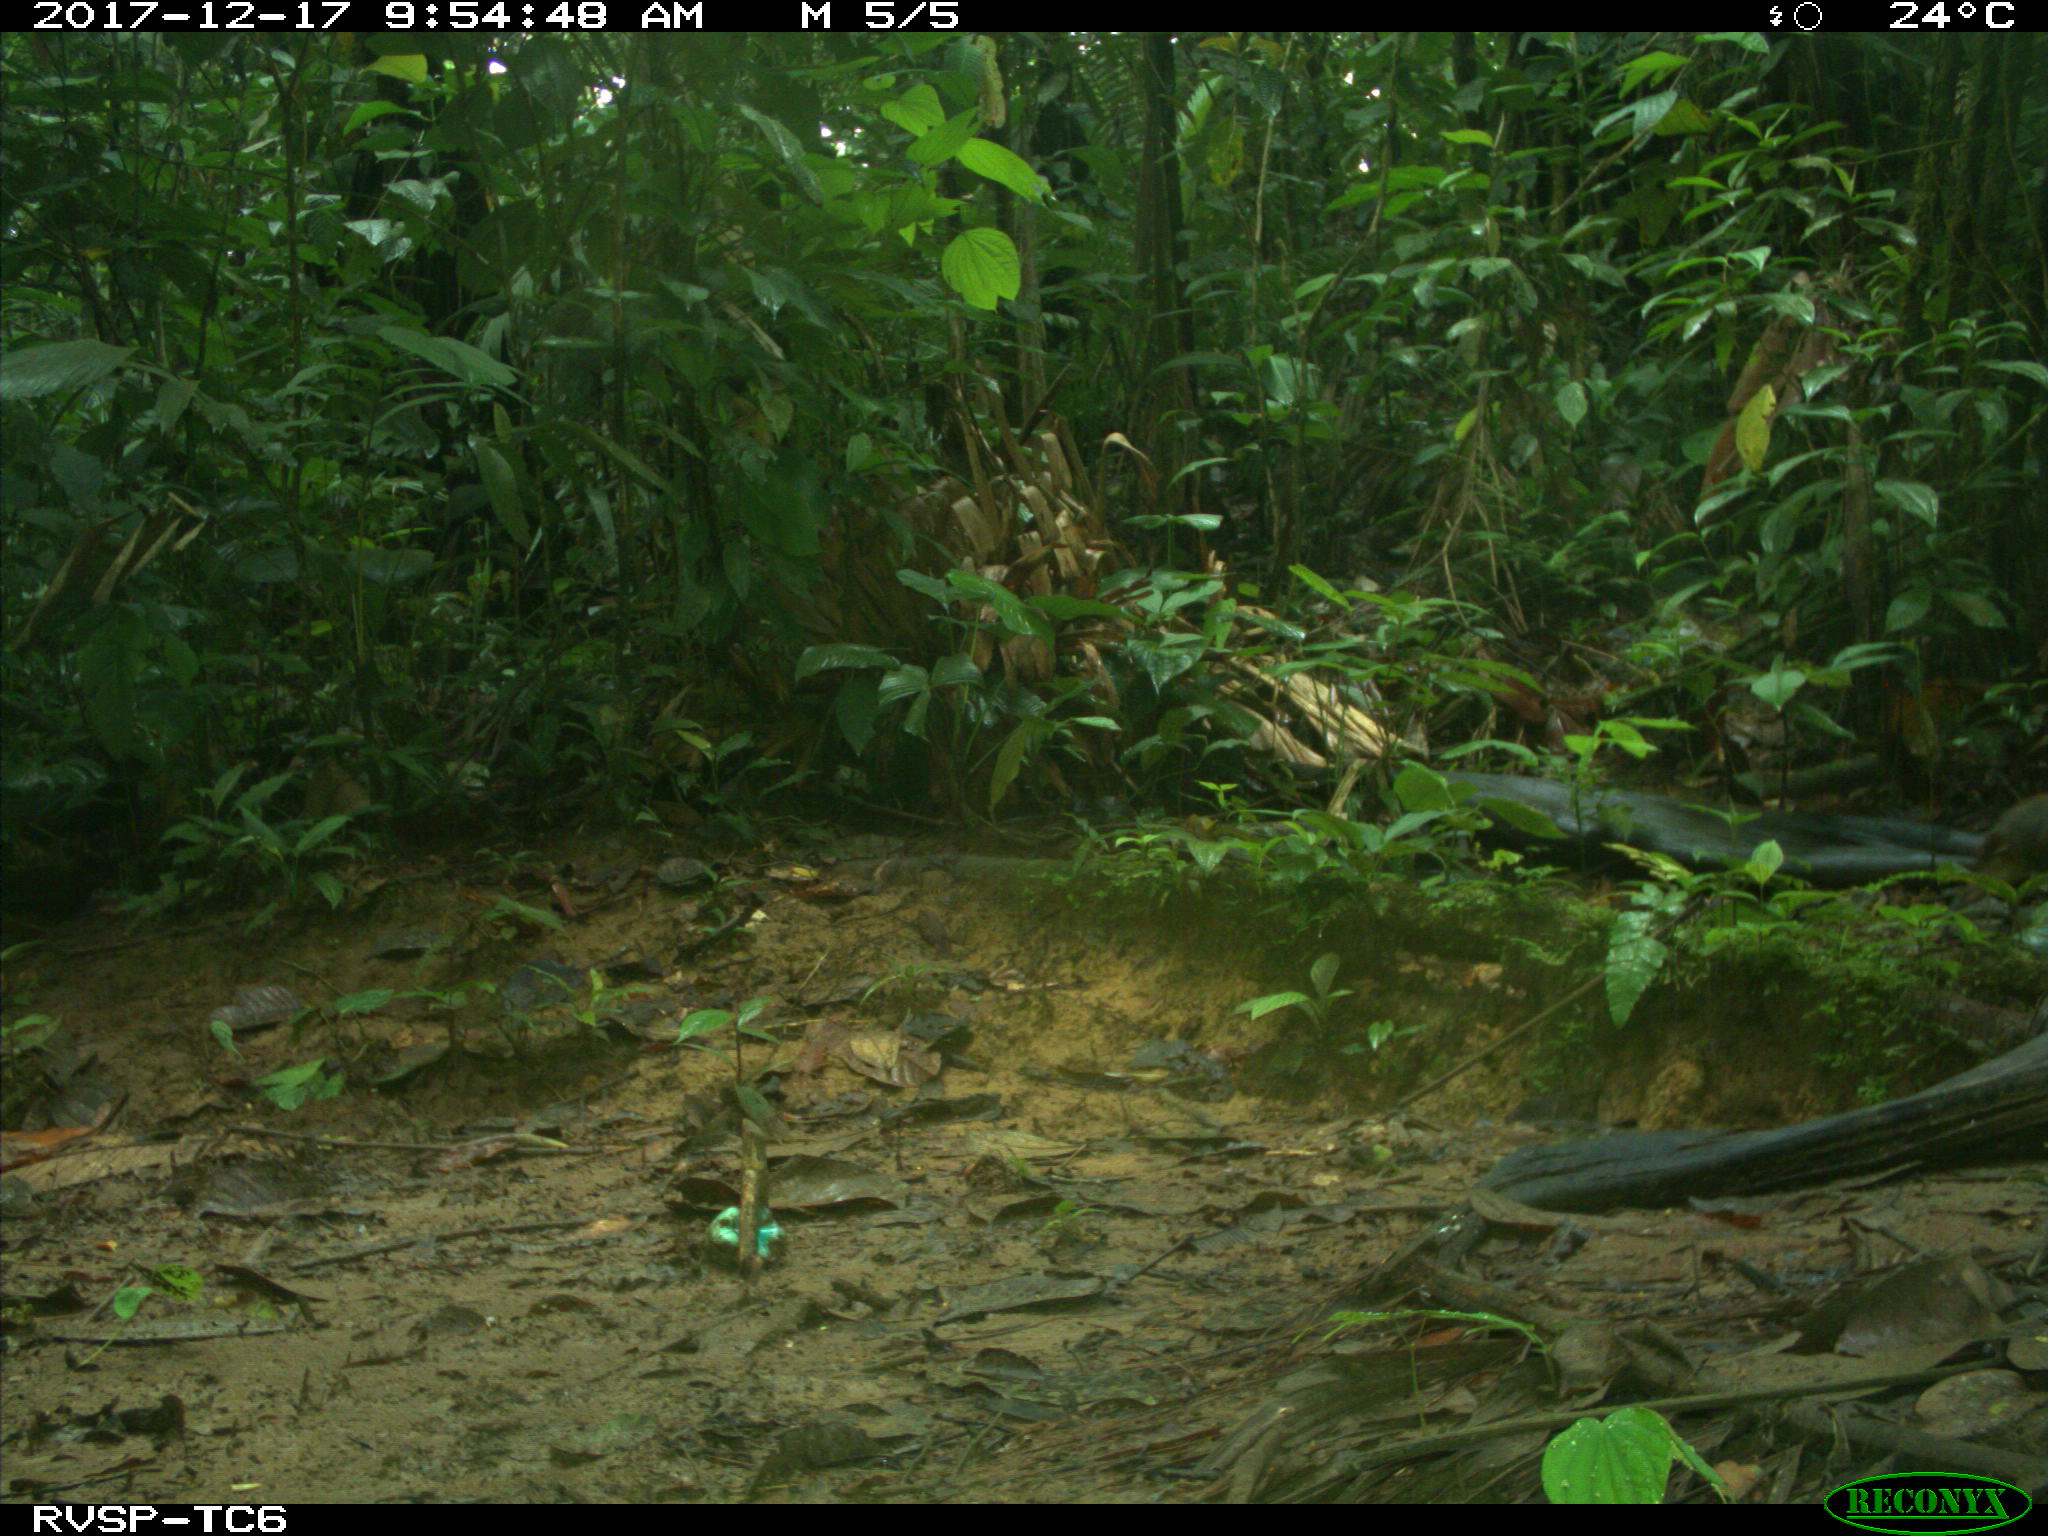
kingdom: Animalia
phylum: Chordata
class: Mammalia
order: Rodentia
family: Dasyproctidae
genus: Dasyprocta
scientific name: Dasyprocta punctata
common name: Central american agouti
